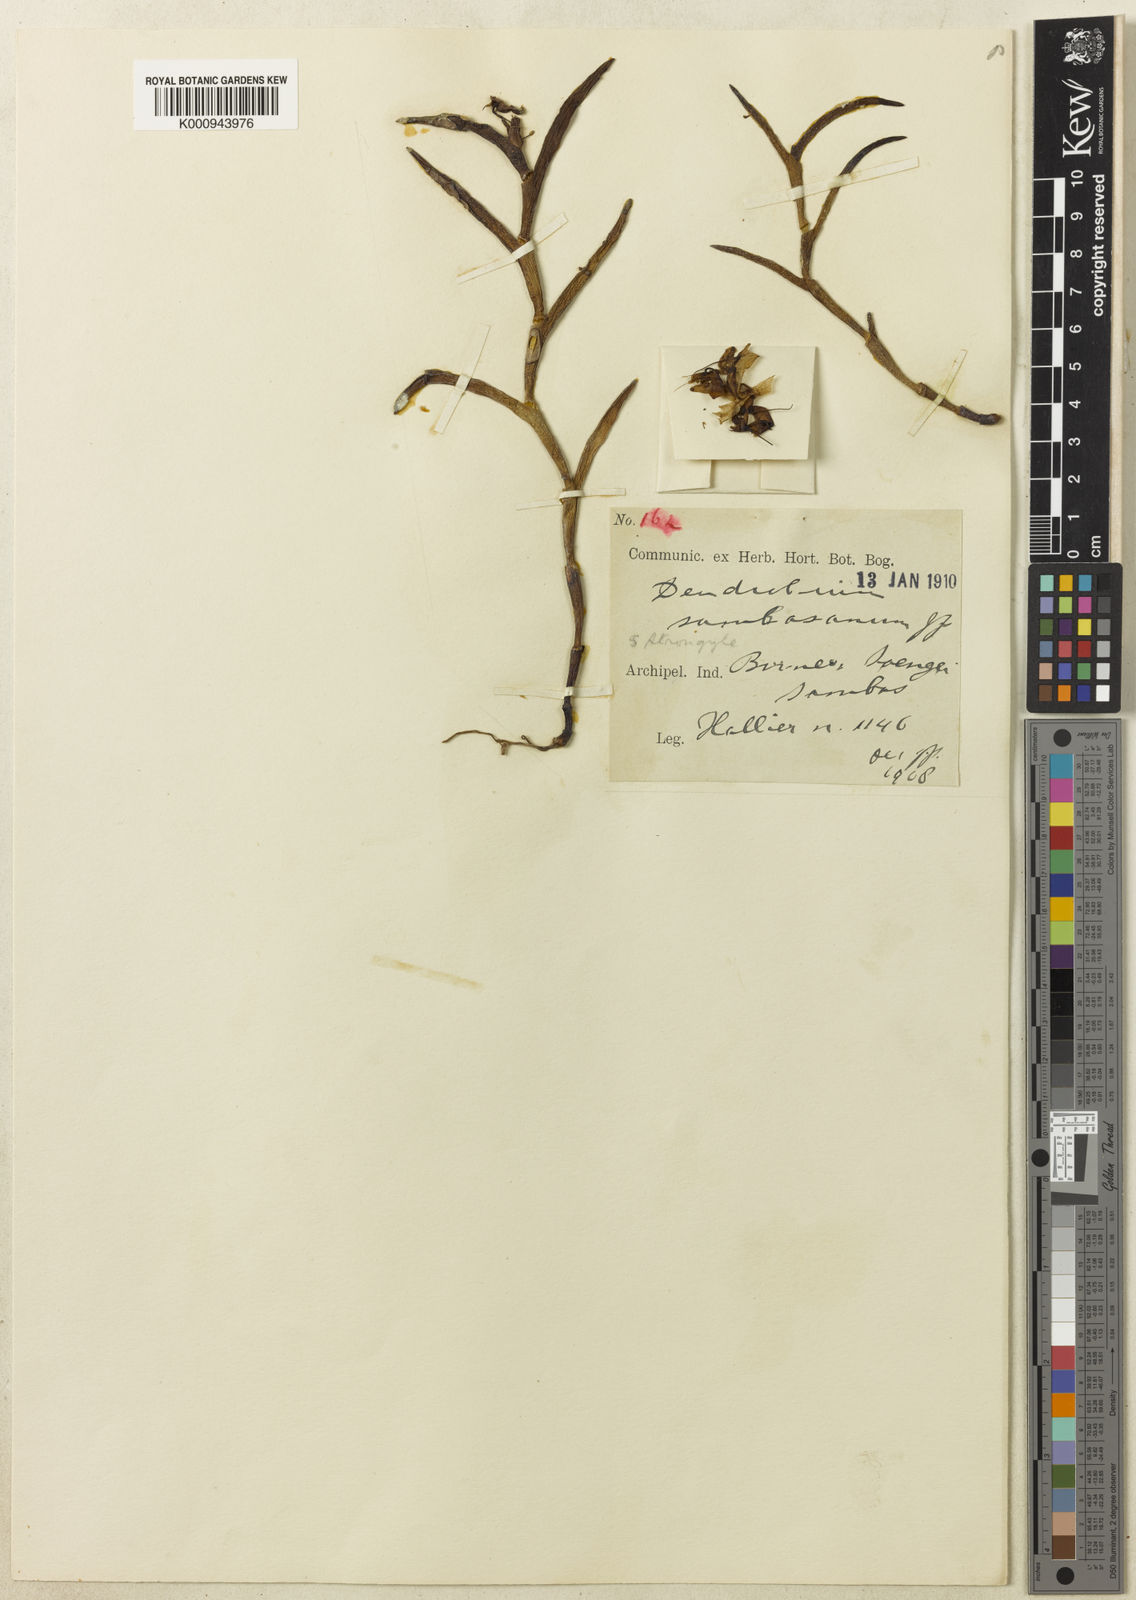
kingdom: Plantae
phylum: Tracheophyta
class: Liliopsida
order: Asparagales
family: Orchidaceae
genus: Dendrobium
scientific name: Dendrobium sambasanum
